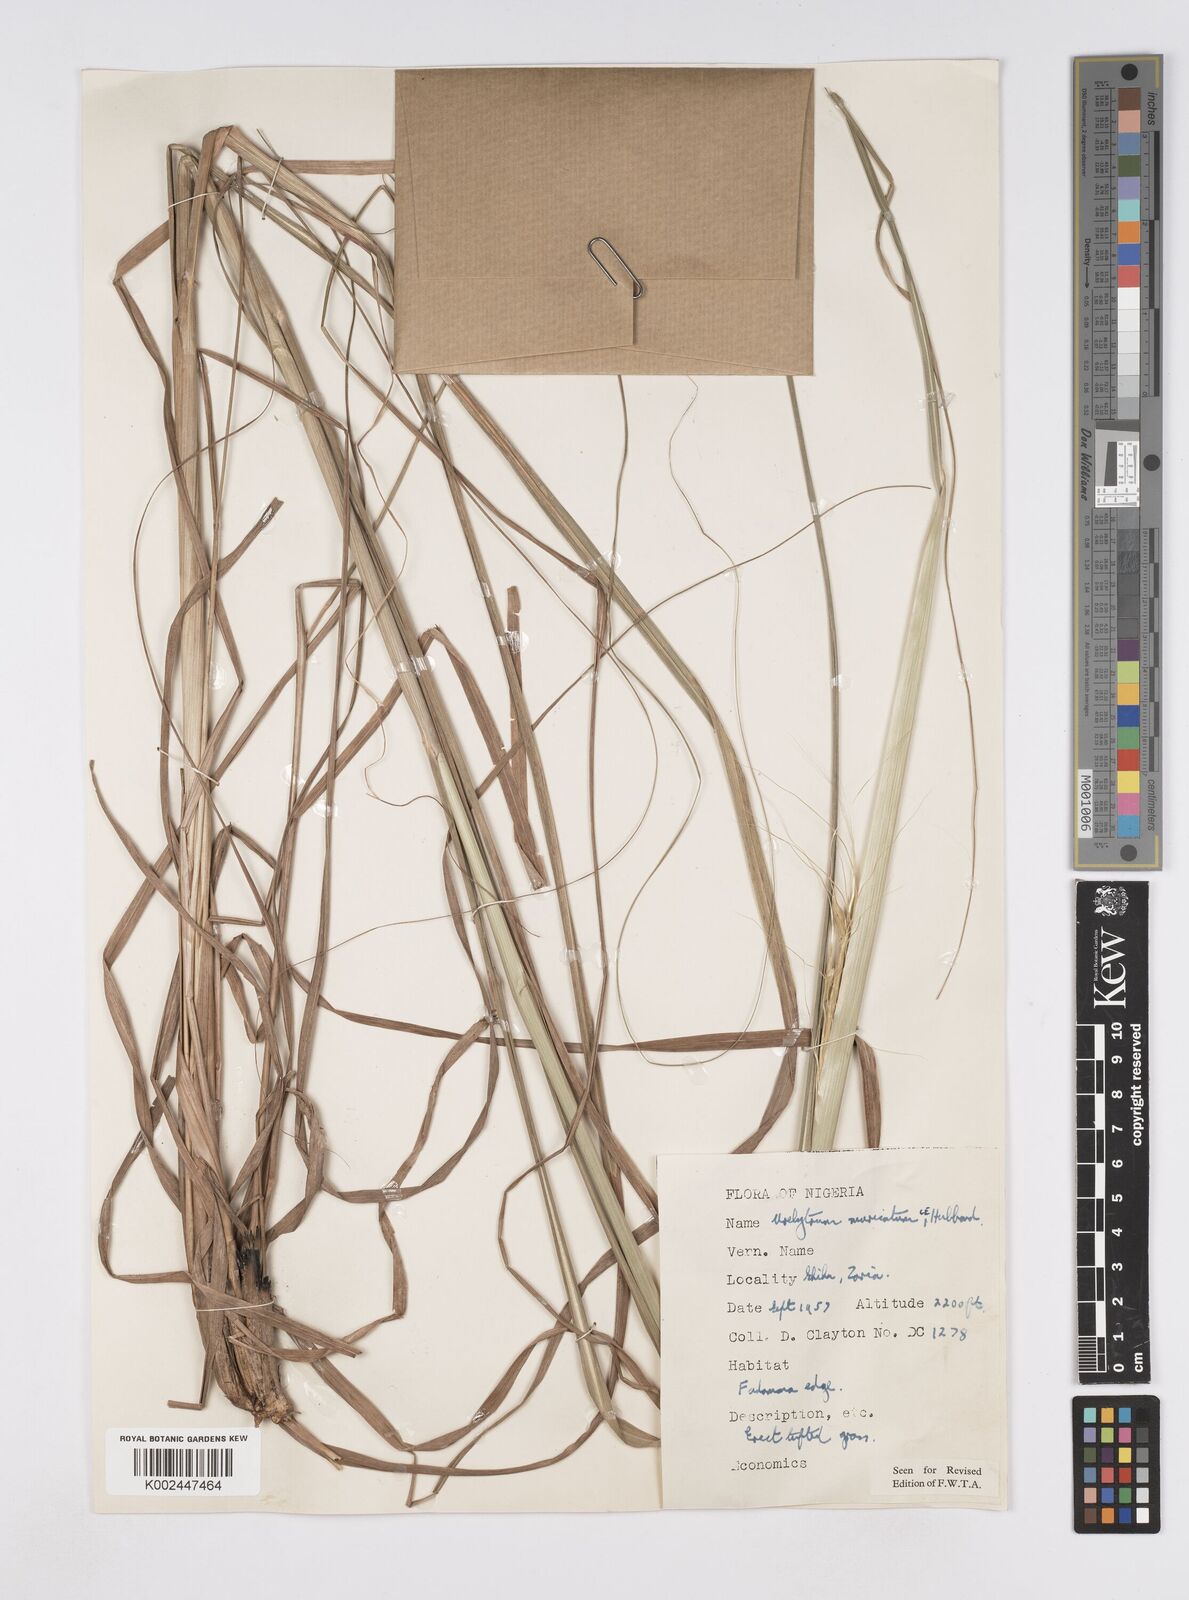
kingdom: Plantae
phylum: Tracheophyta
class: Liliopsida
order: Poales
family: Poaceae
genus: Urelytrum
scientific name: Urelytrum muricatum
